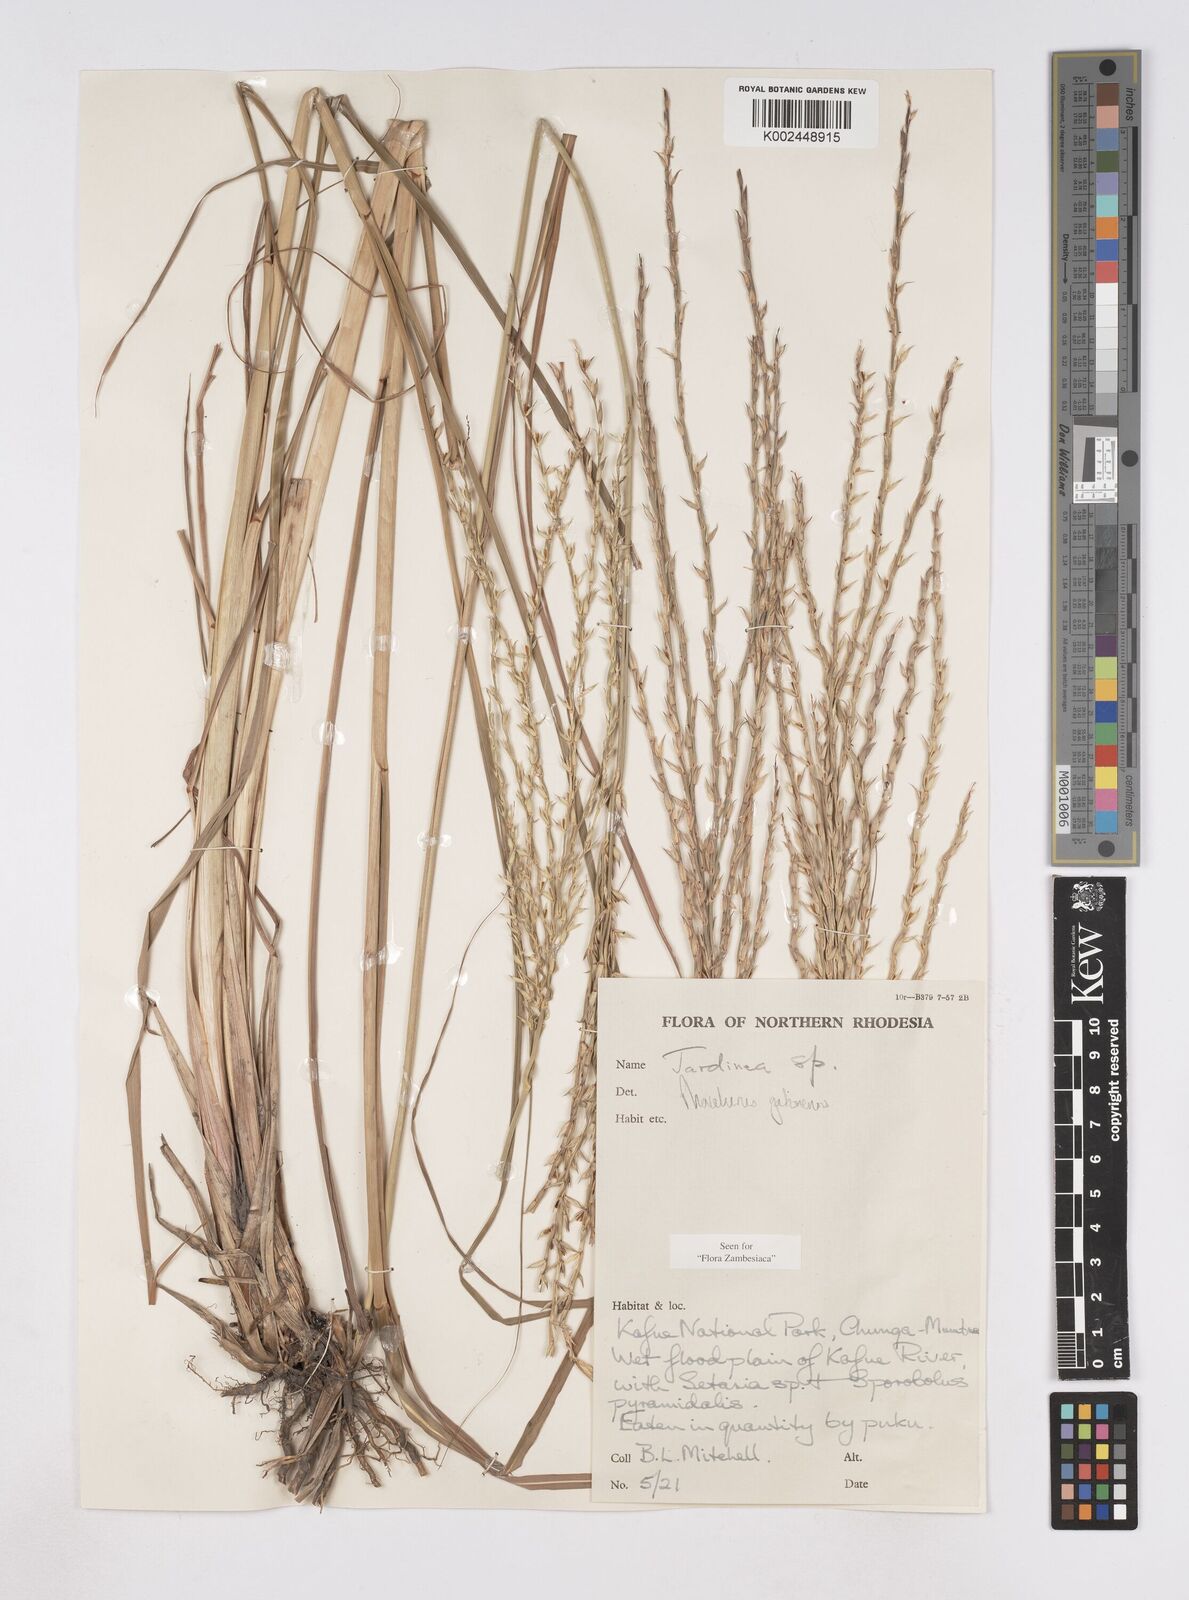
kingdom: Plantae
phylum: Tracheophyta
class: Liliopsida
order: Poales
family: Poaceae
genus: Phacelurus
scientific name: Phacelurus gabonensis
